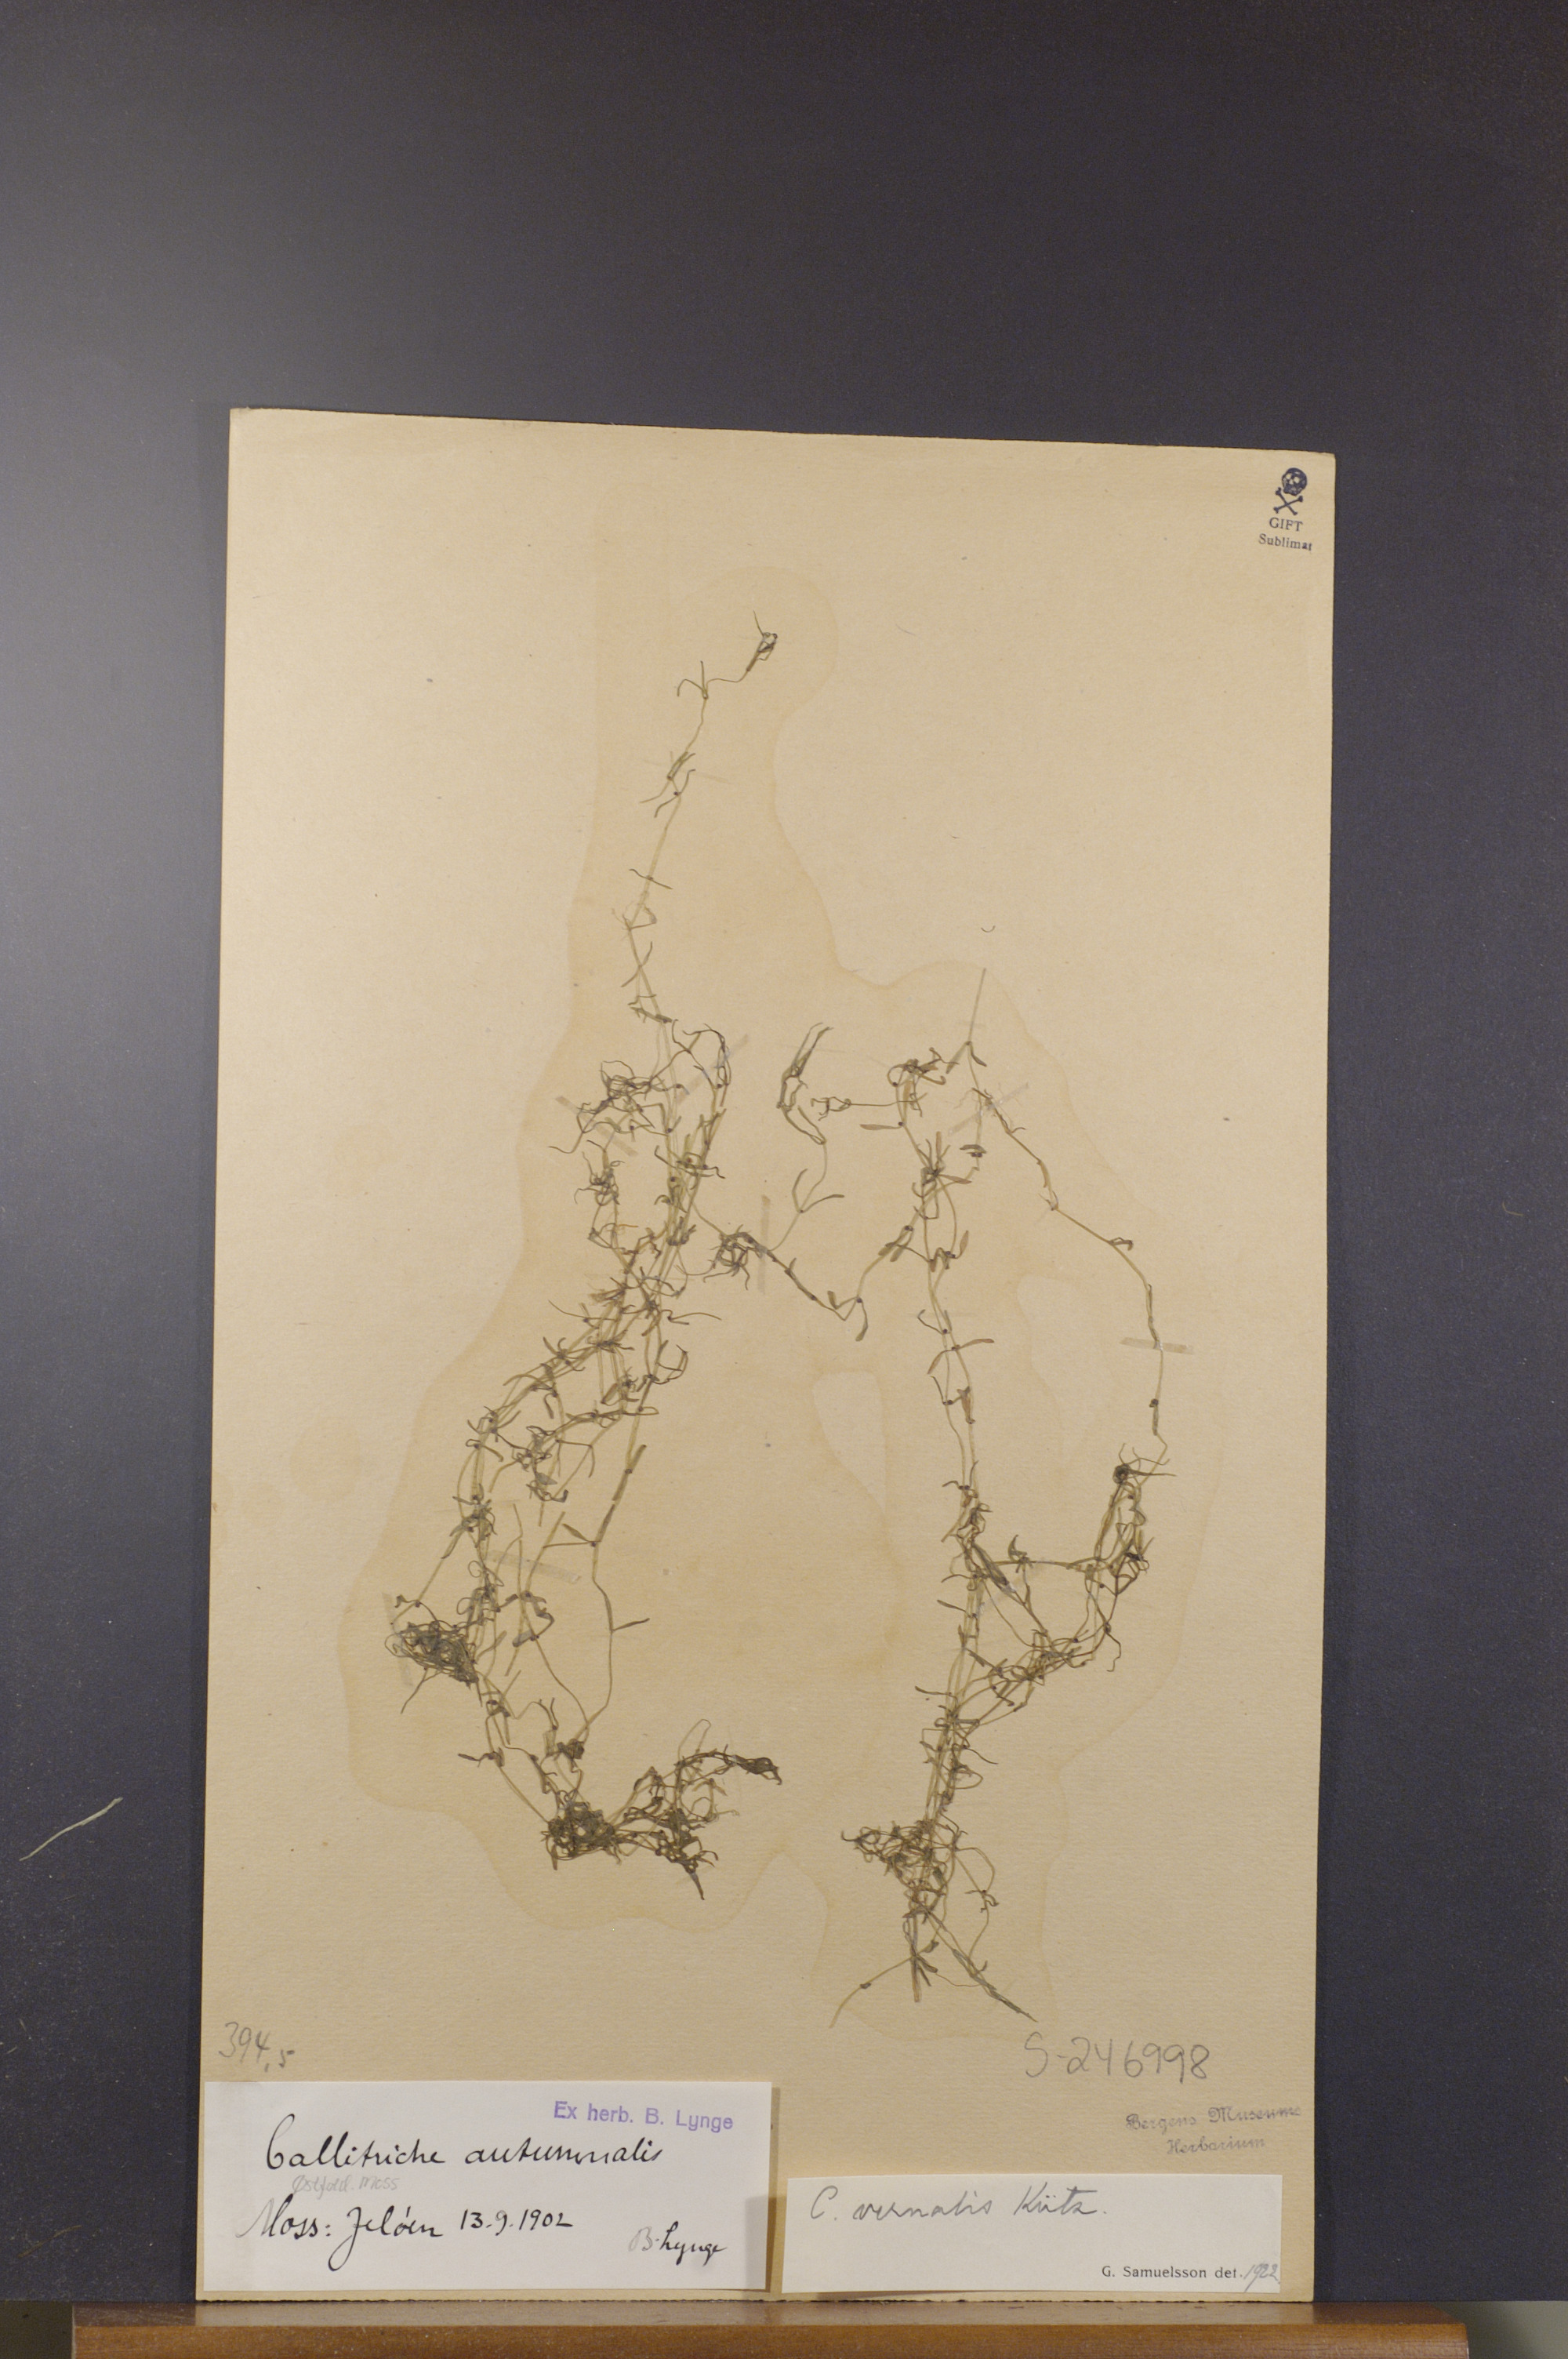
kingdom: Plantae
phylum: Tracheophyta
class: Magnoliopsida
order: Lamiales
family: Plantaginaceae
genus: Callitriche
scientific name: Callitriche palustris
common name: Spring water-starwort
